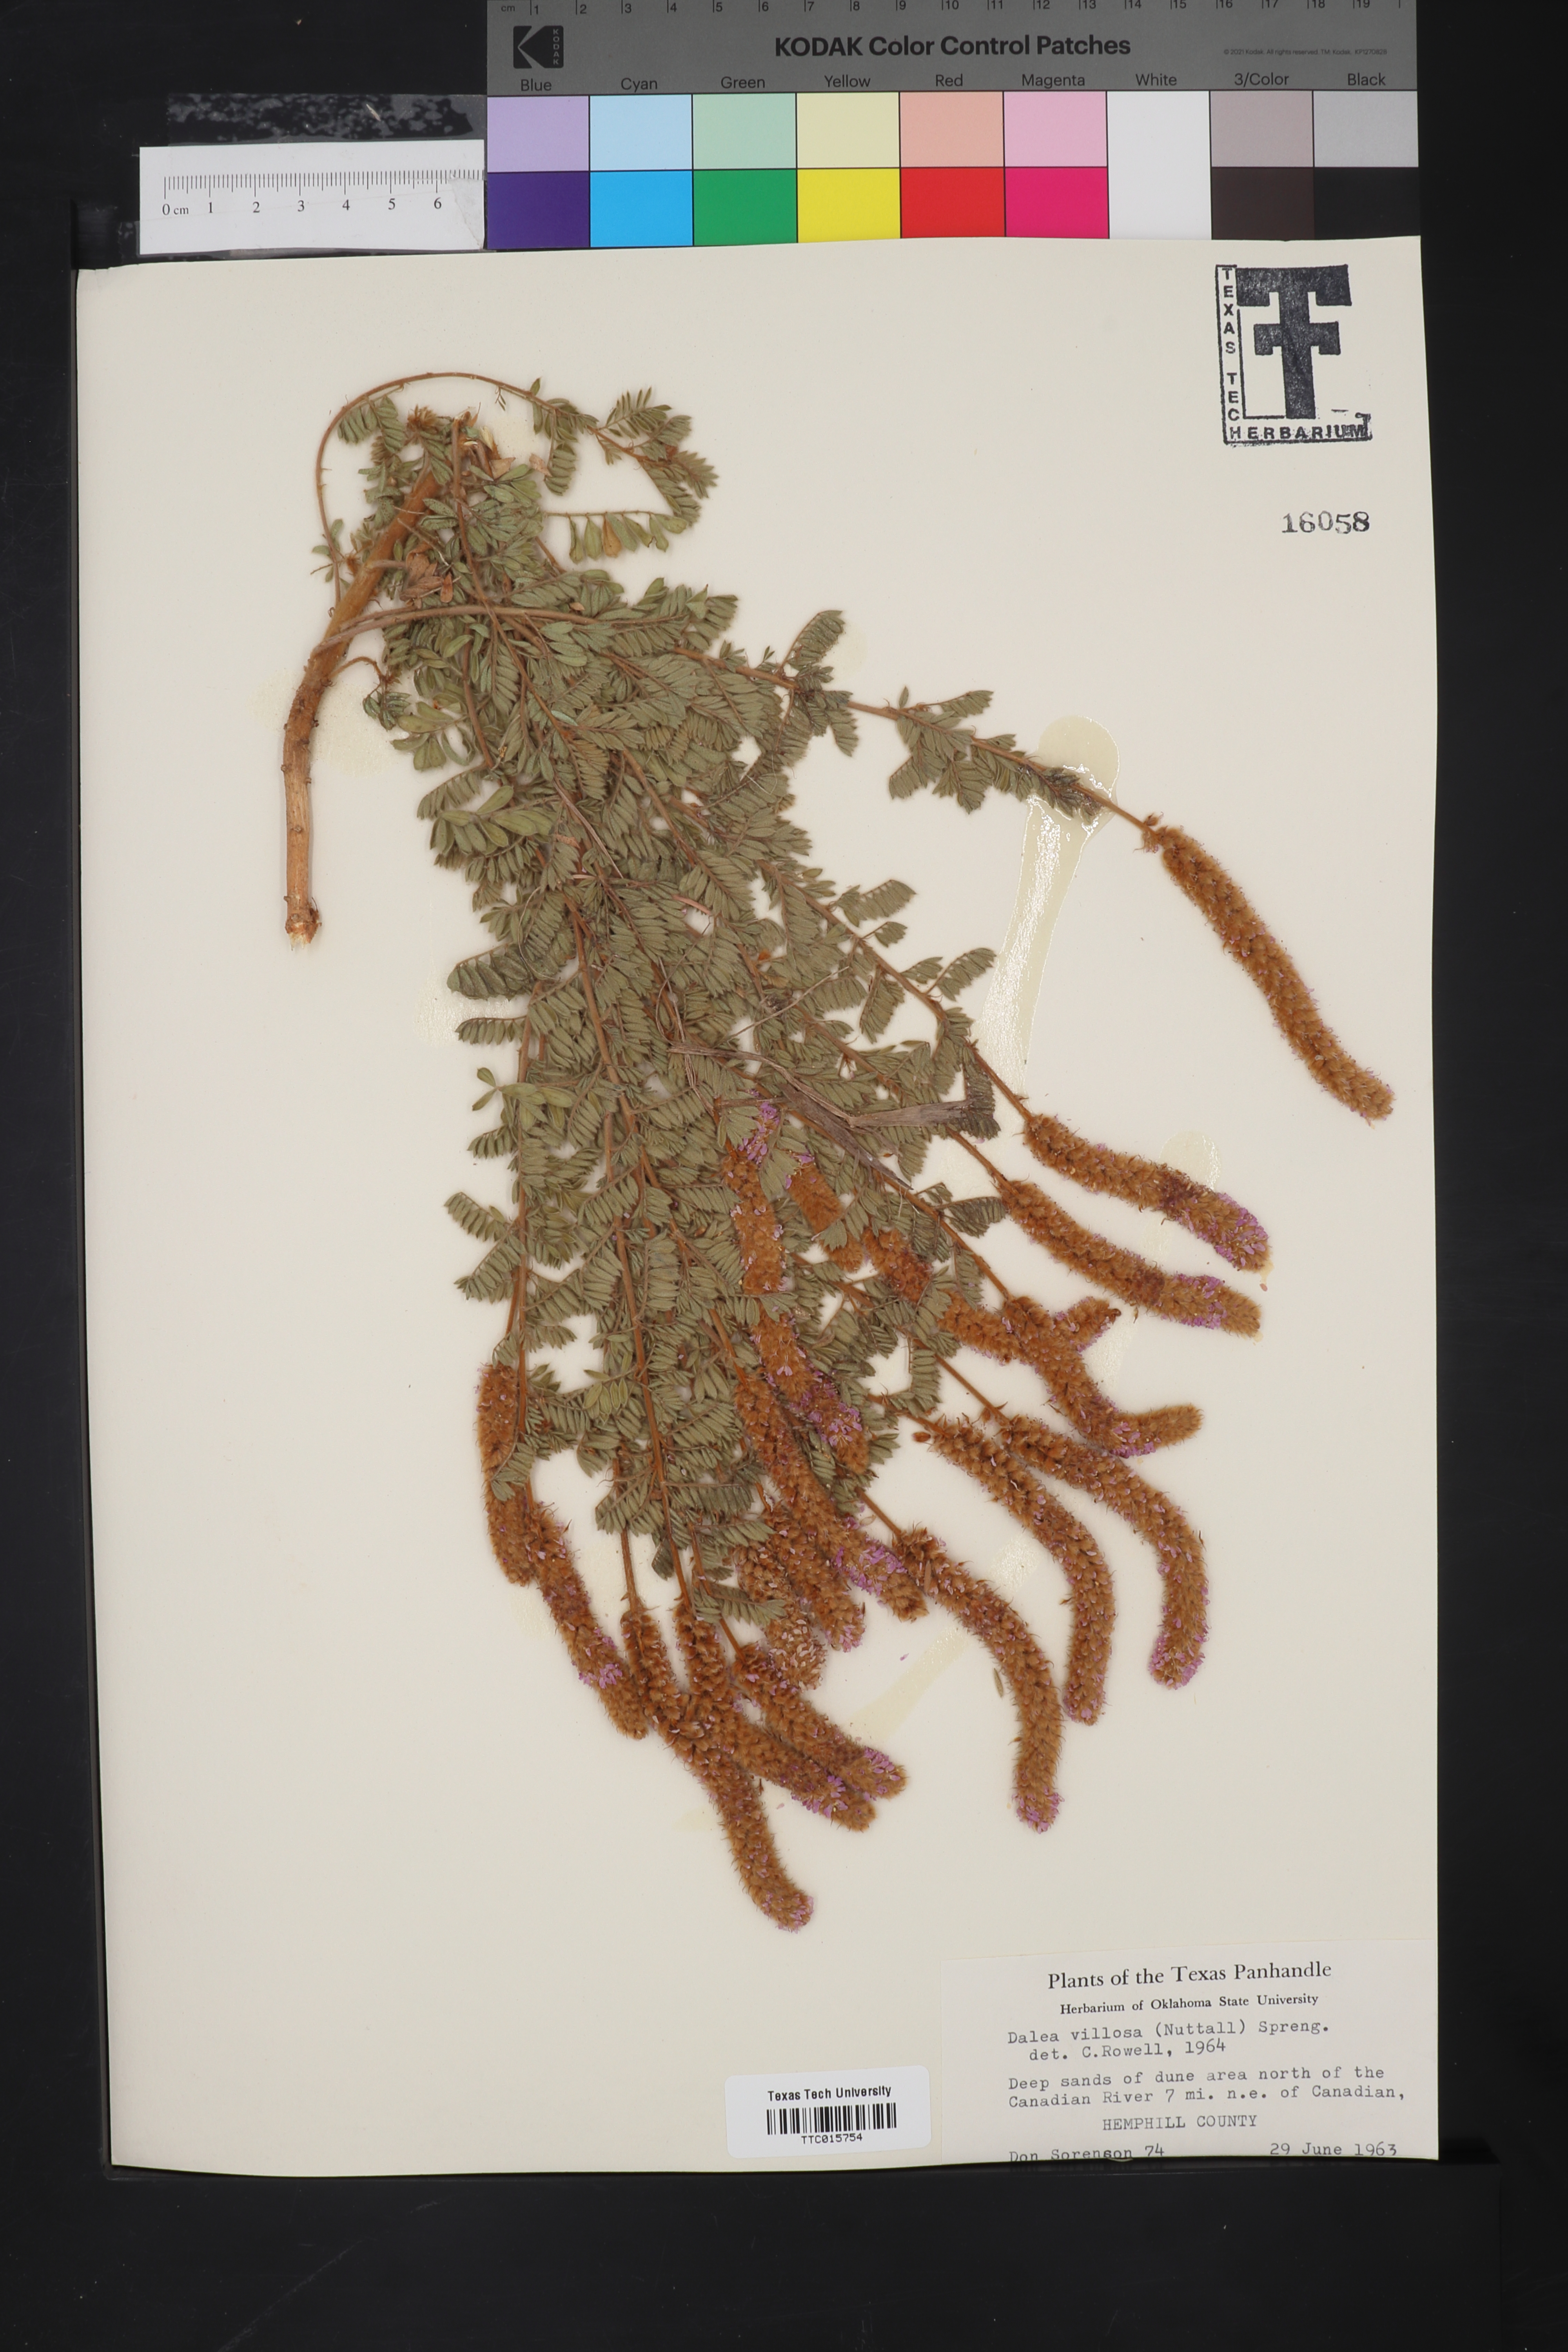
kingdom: Plantae
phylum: Tracheophyta
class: Magnoliopsida
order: Fabales
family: Fabaceae
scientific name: Fabaceae
